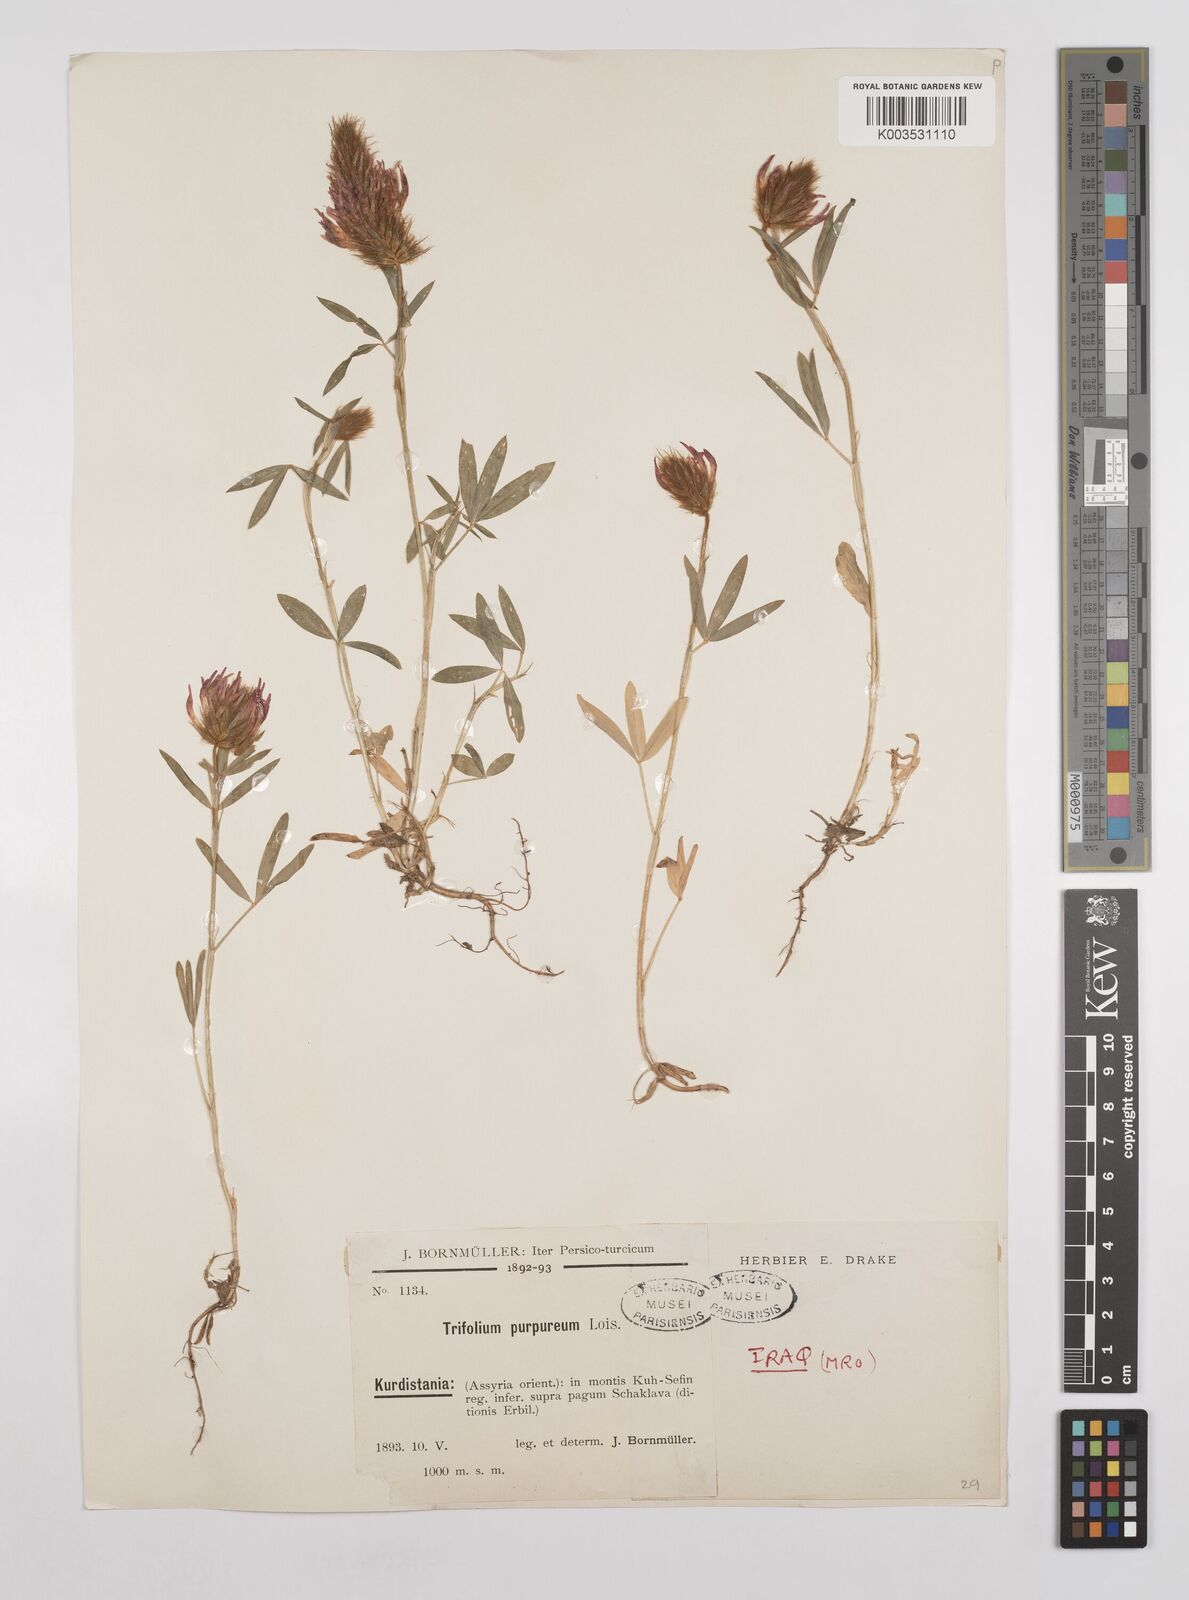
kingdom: Plantae
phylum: Tracheophyta
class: Magnoliopsida
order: Fabales
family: Fabaceae
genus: Trifolium
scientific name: Trifolium purpureum
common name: Purple clover
